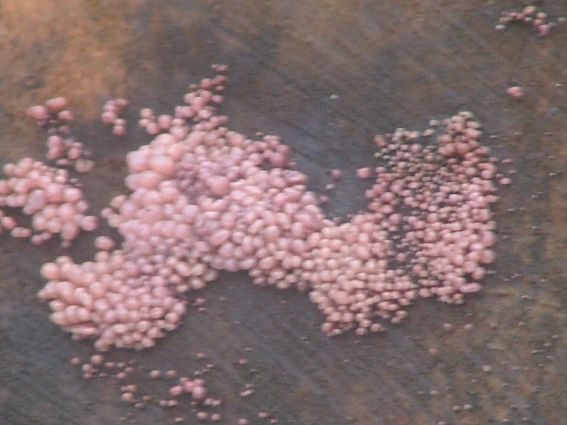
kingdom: Fungi
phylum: Ascomycota
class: Leotiomycetes
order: Helotiales
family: Gelatinodiscaceae
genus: Ascocoryne
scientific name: Ascocoryne sarcoides
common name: rødlilla sejskive
